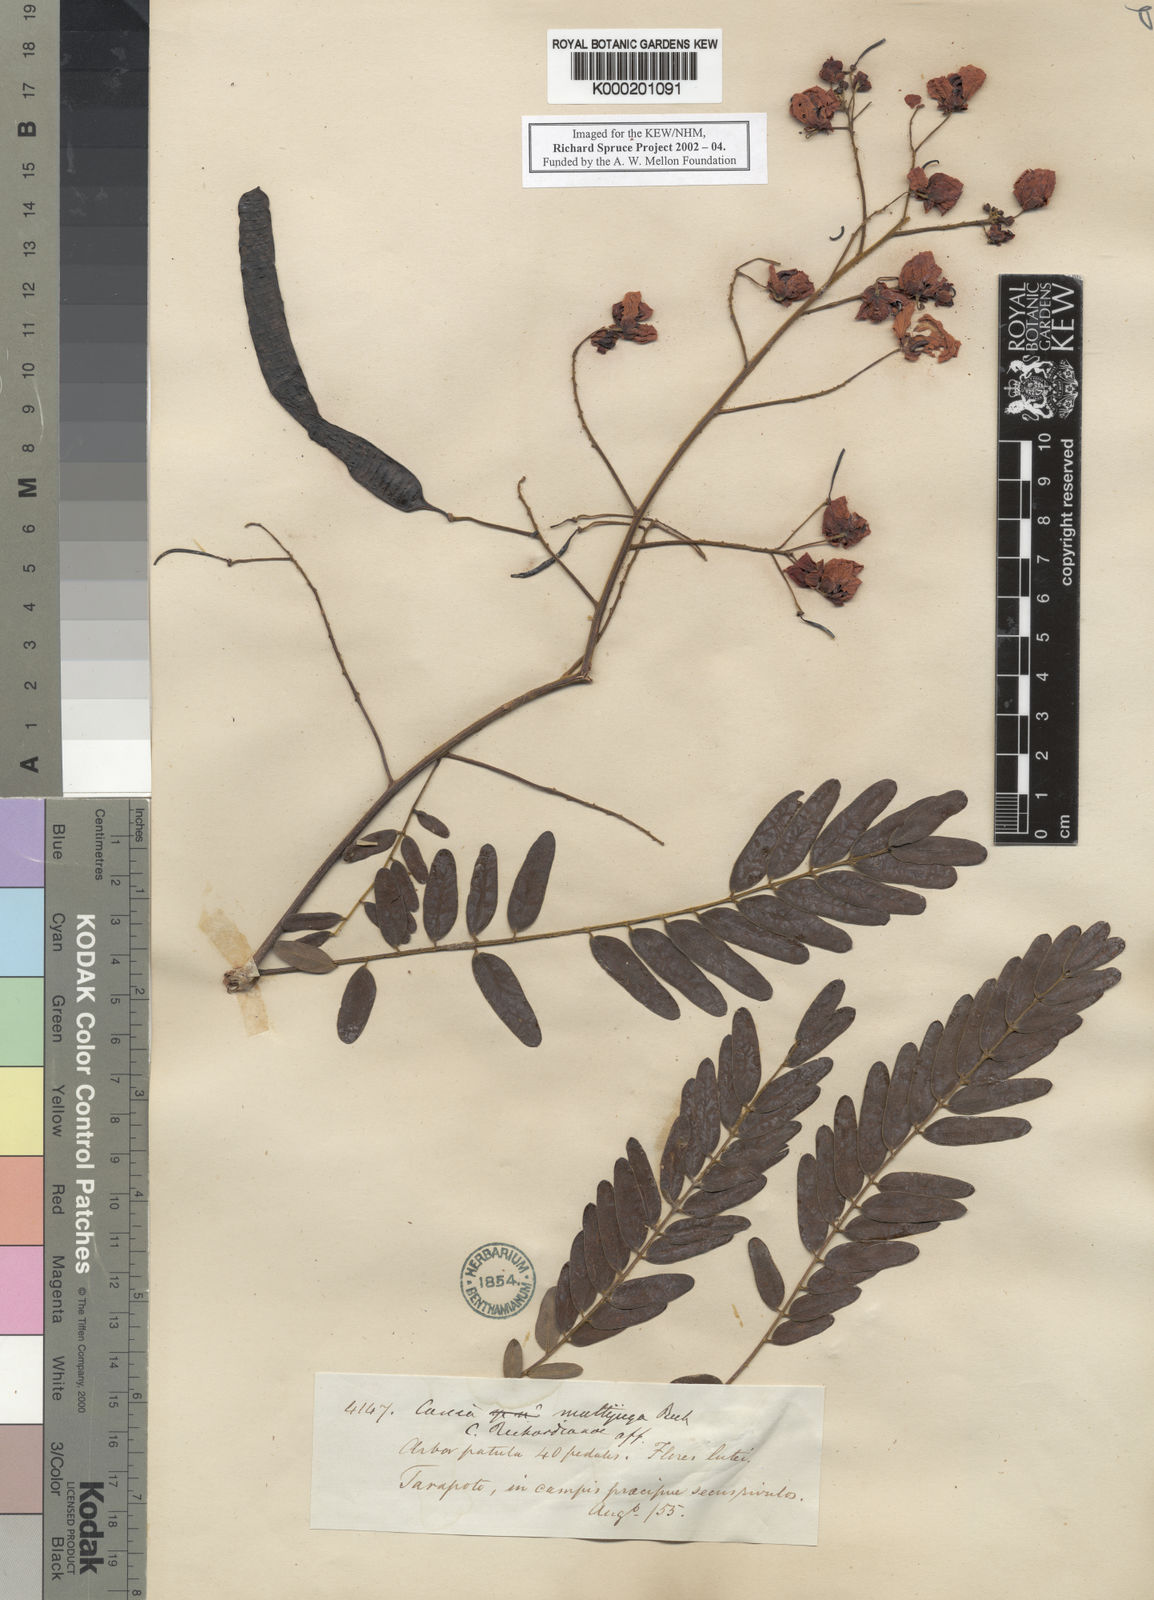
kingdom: Plantae
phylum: Tracheophyta
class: Magnoliopsida
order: Fabales
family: Fabaceae
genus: Senna
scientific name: Senna multijuga
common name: False sicklepod
